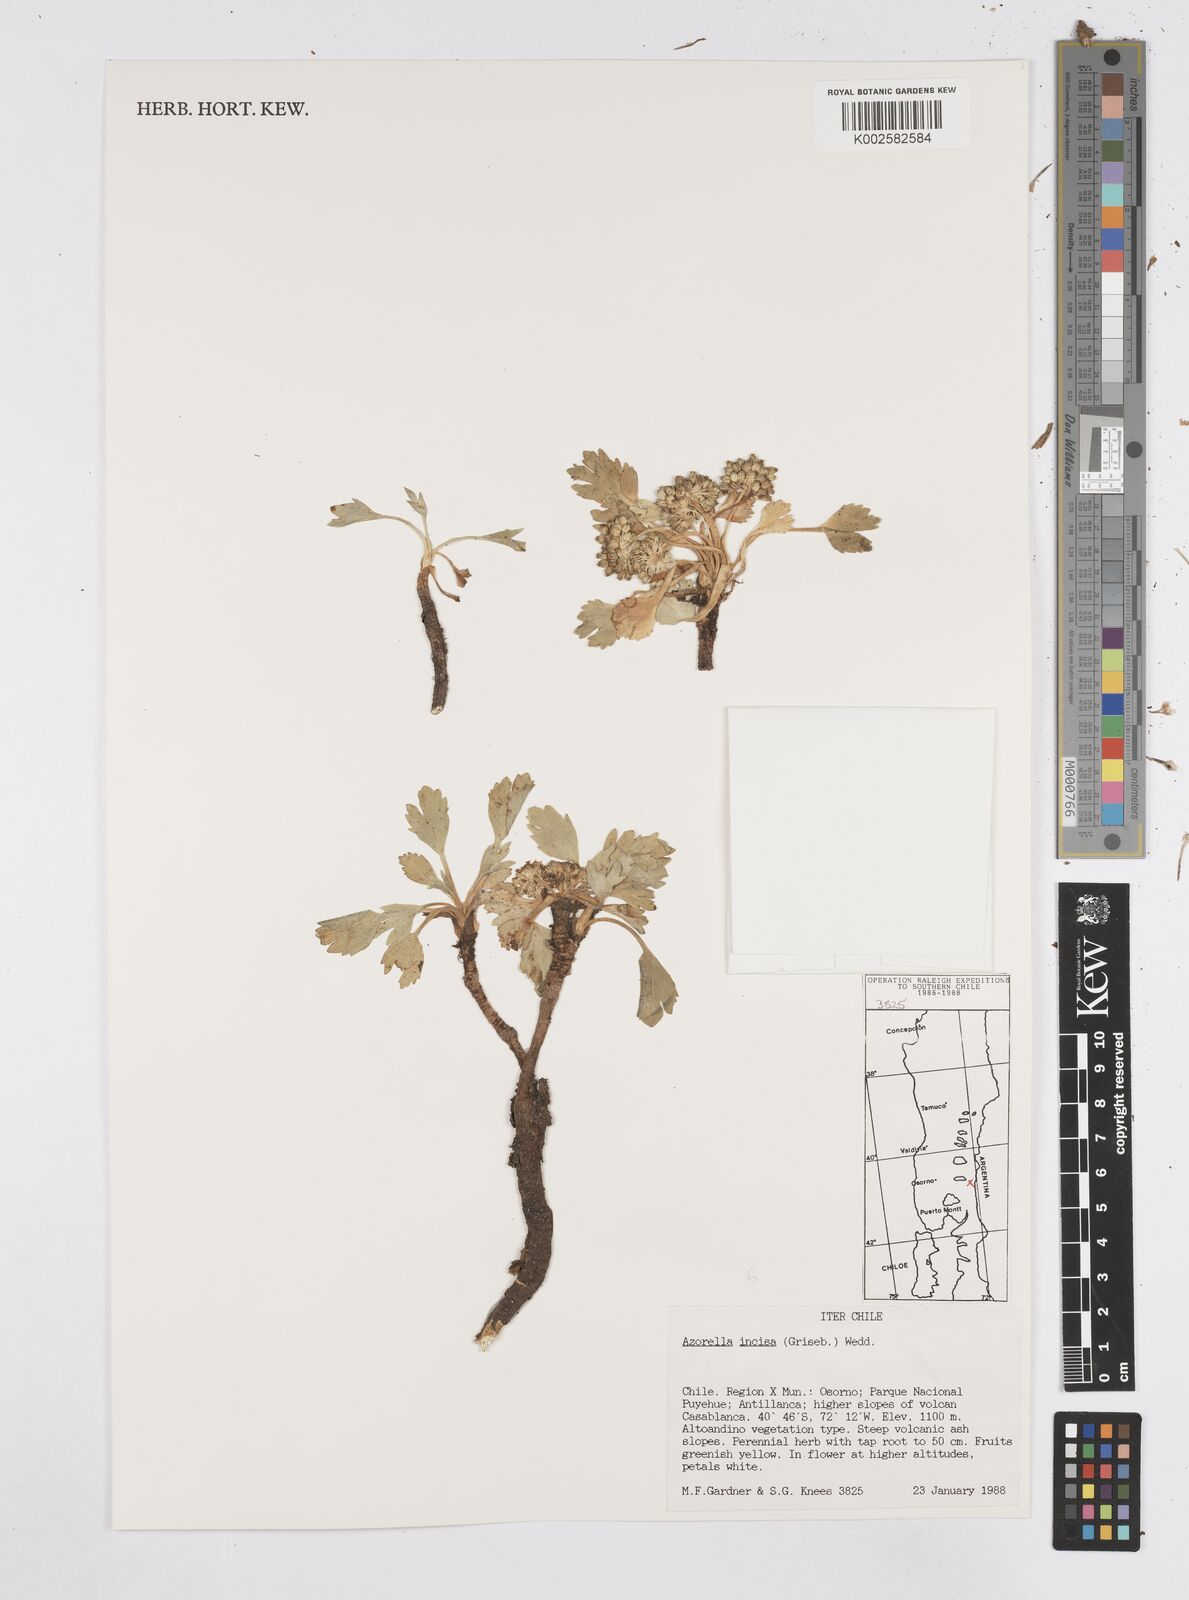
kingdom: Plantae
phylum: Tracheophyta
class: Magnoliopsida
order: Apiales
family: Apiaceae
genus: Azorella
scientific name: Azorella diversifolia
